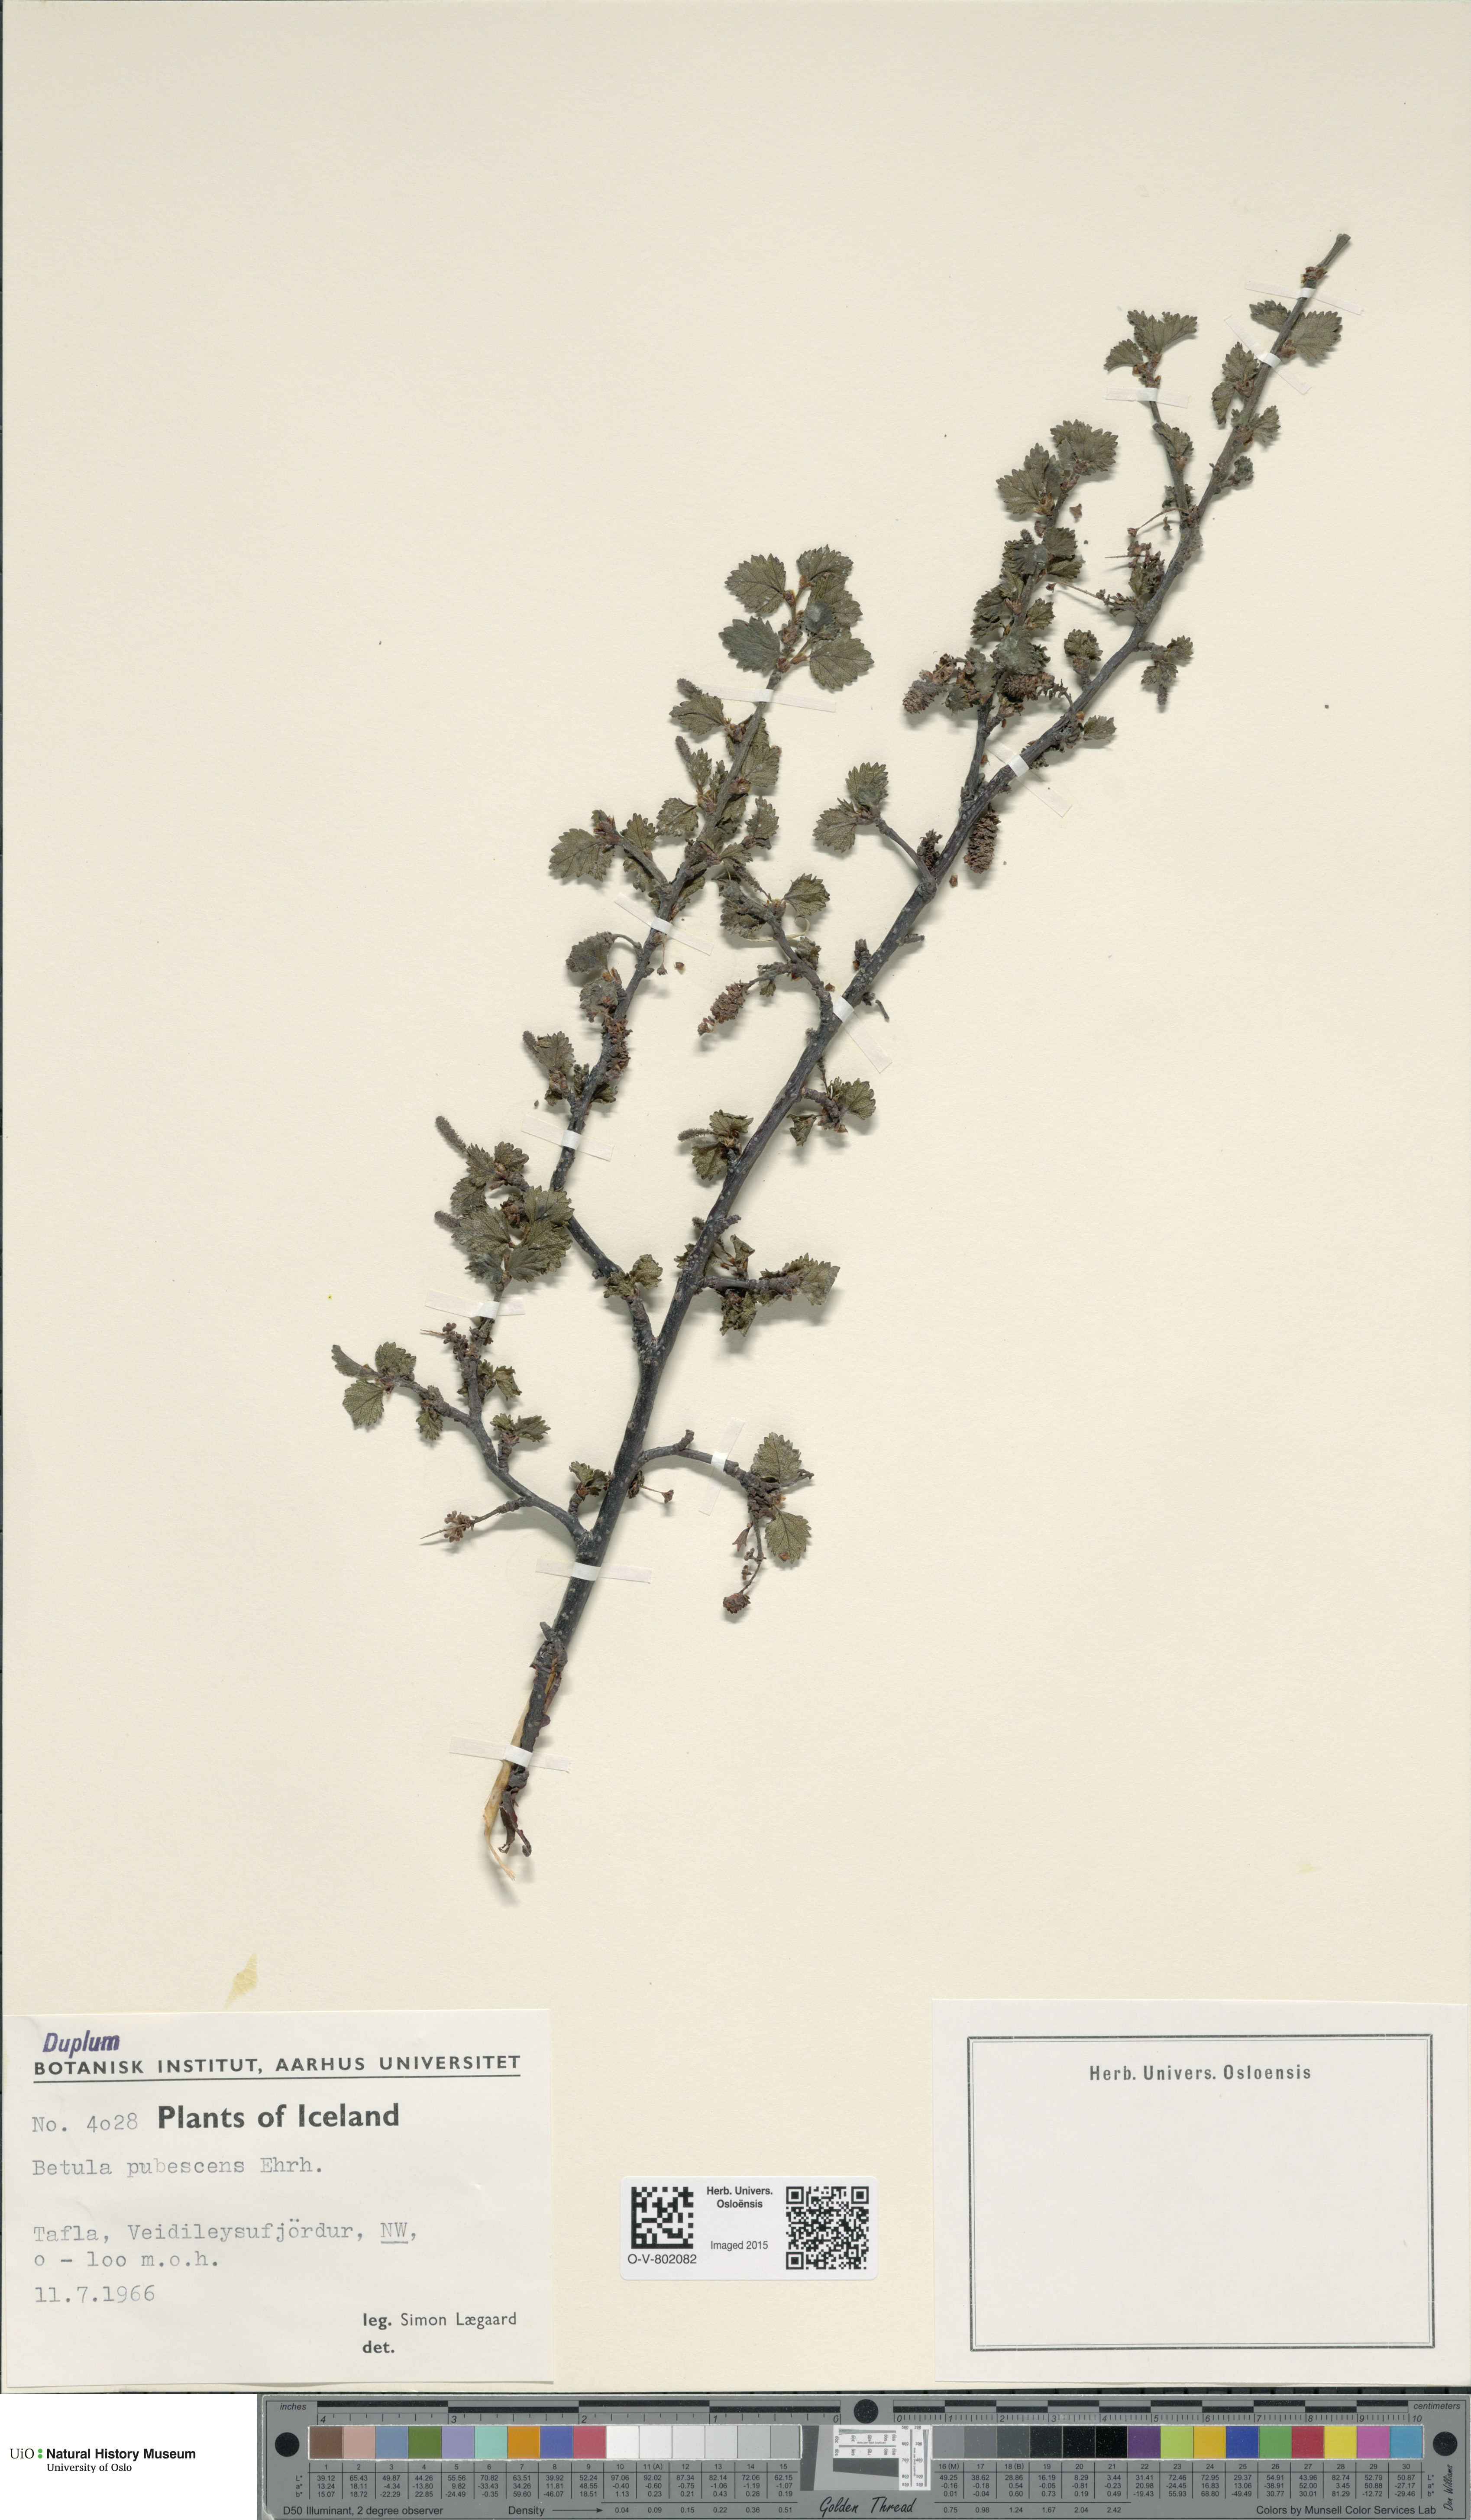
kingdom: Plantae
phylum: Tracheophyta
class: Magnoliopsida
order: Fagales
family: Betulaceae
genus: Betula
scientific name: Betula pubescens
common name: Downy birch
